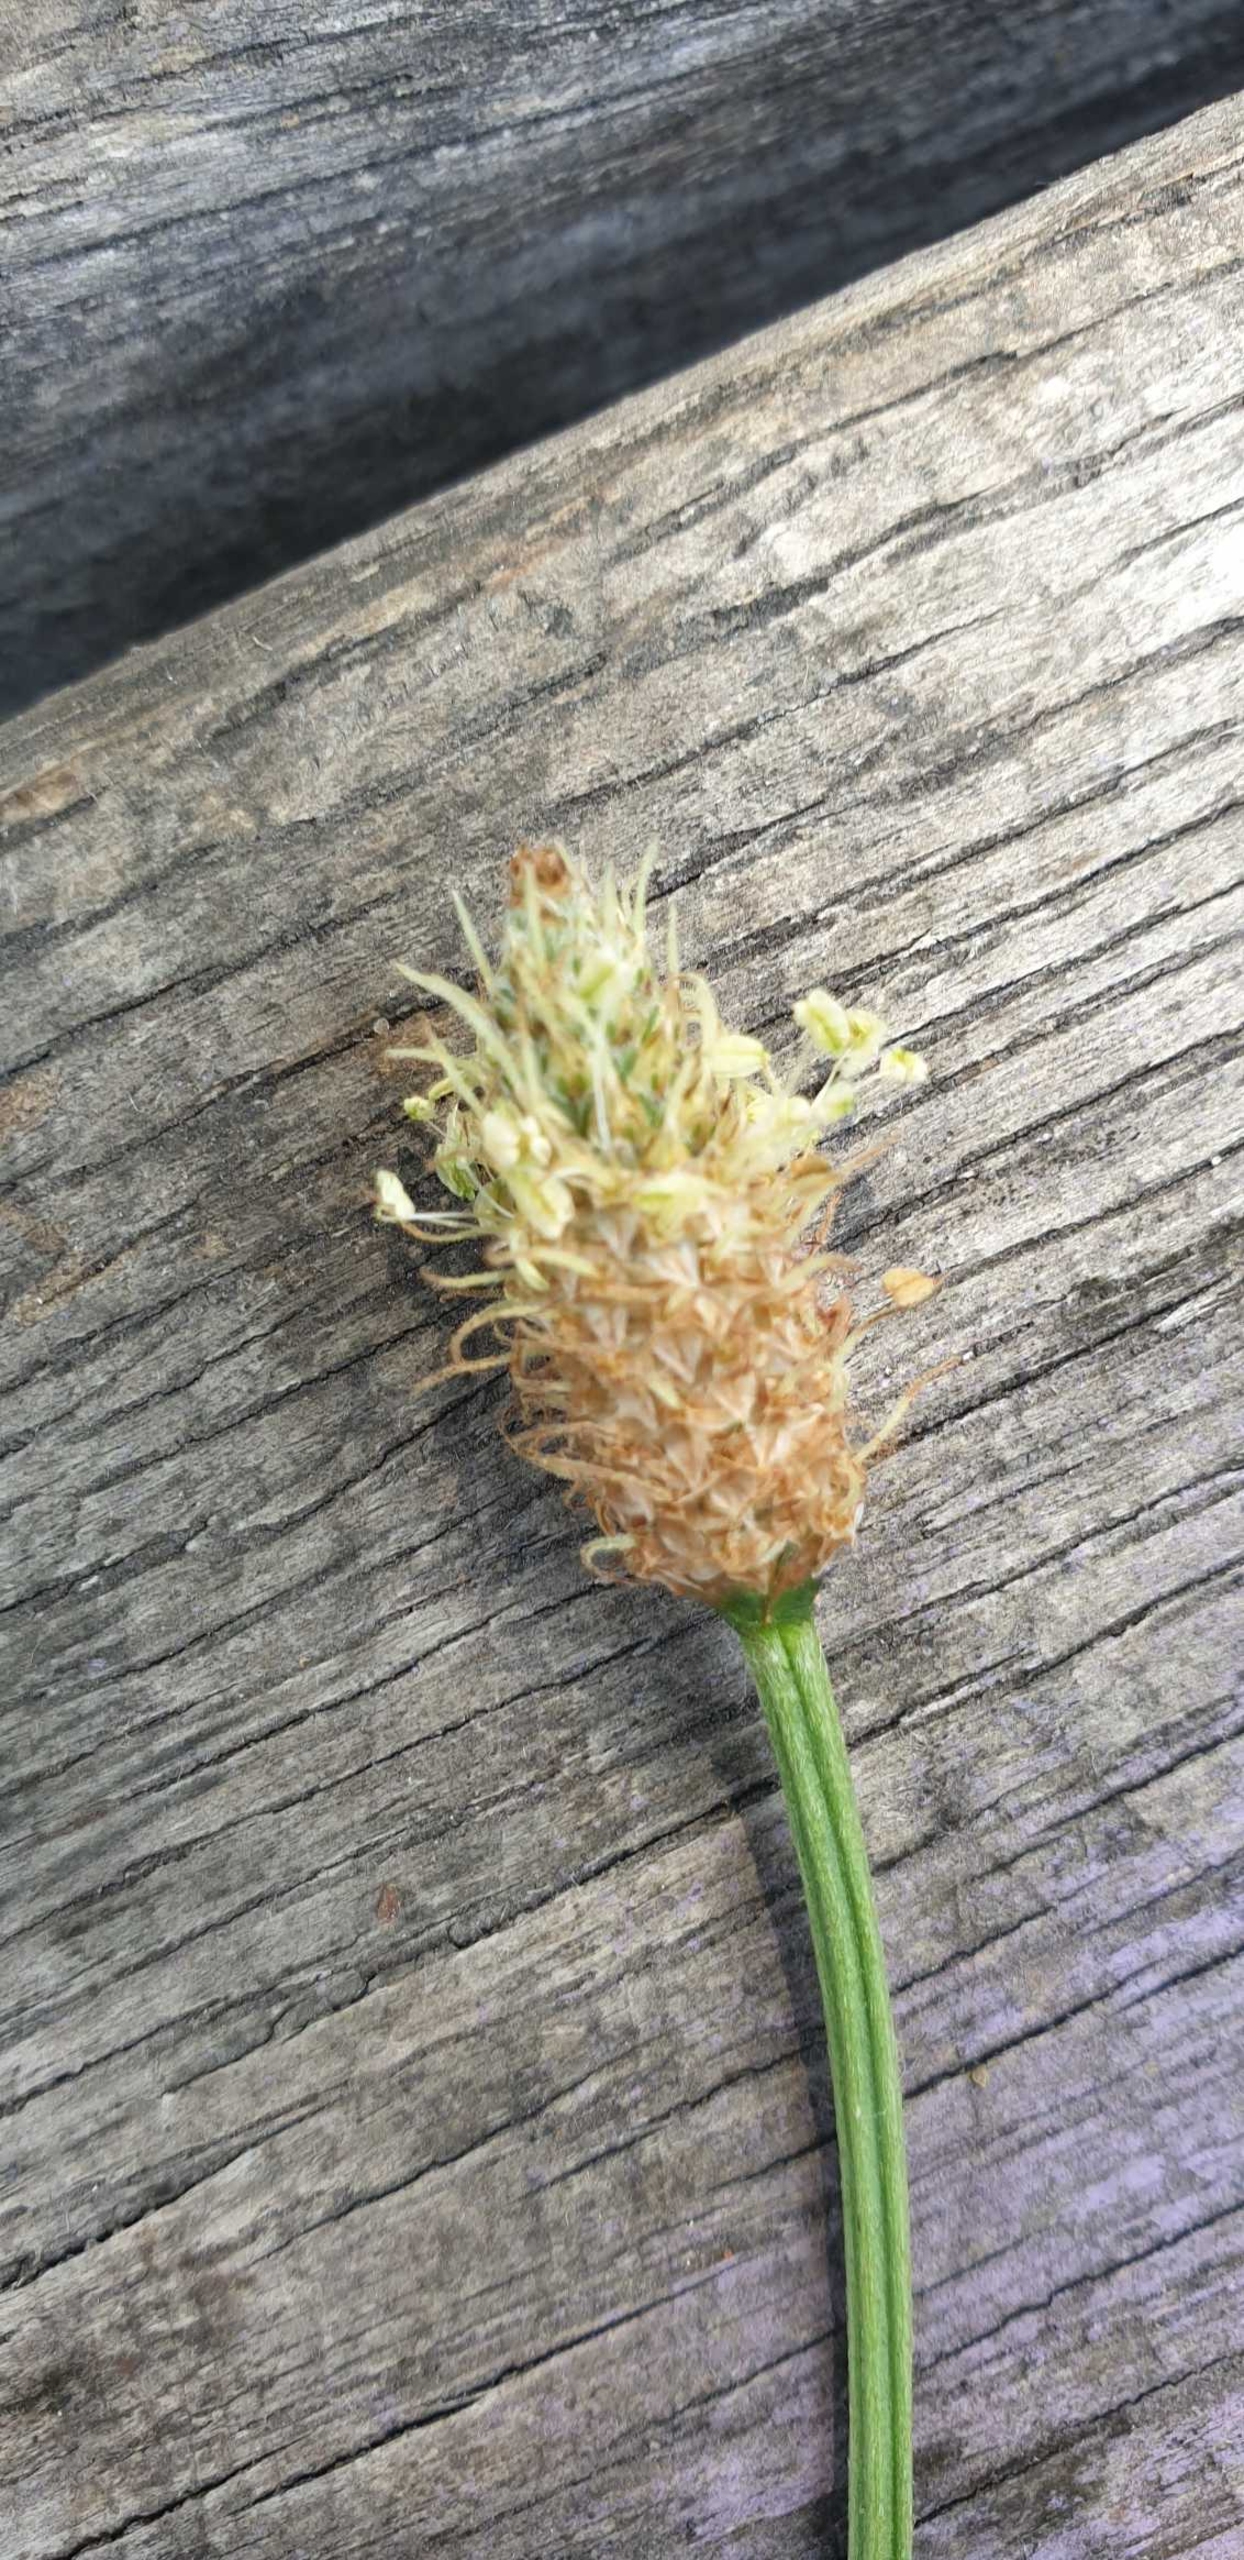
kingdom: Plantae
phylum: Tracheophyta
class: Magnoliopsida
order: Lamiales
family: Plantaginaceae
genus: Plantago
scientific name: Plantago lanceolata
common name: Lancet-vejbred
